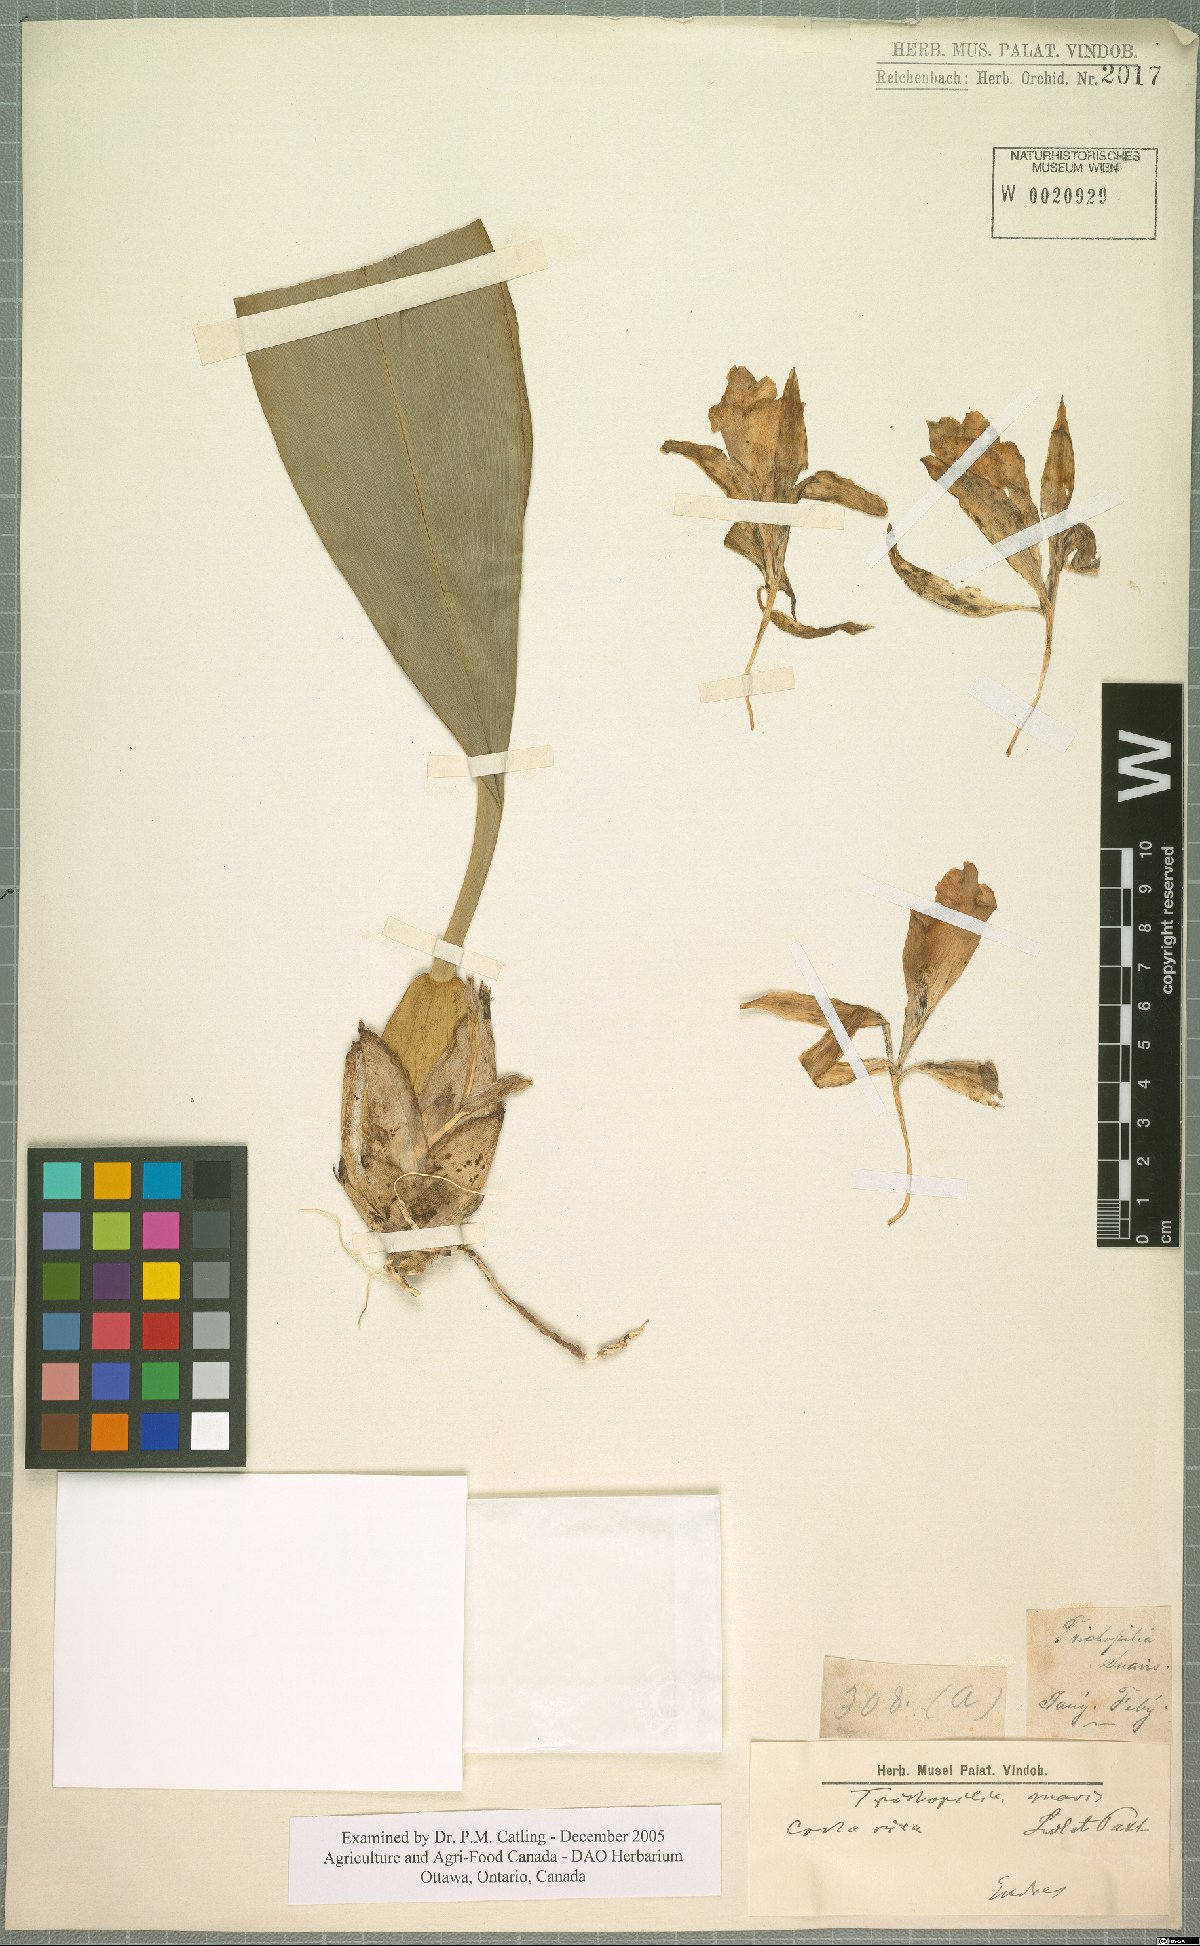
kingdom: Plantae
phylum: Tracheophyta
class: Liliopsida
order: Asparagales
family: Orchidaceae
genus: Trichopilia
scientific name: Trichopilia suavis
